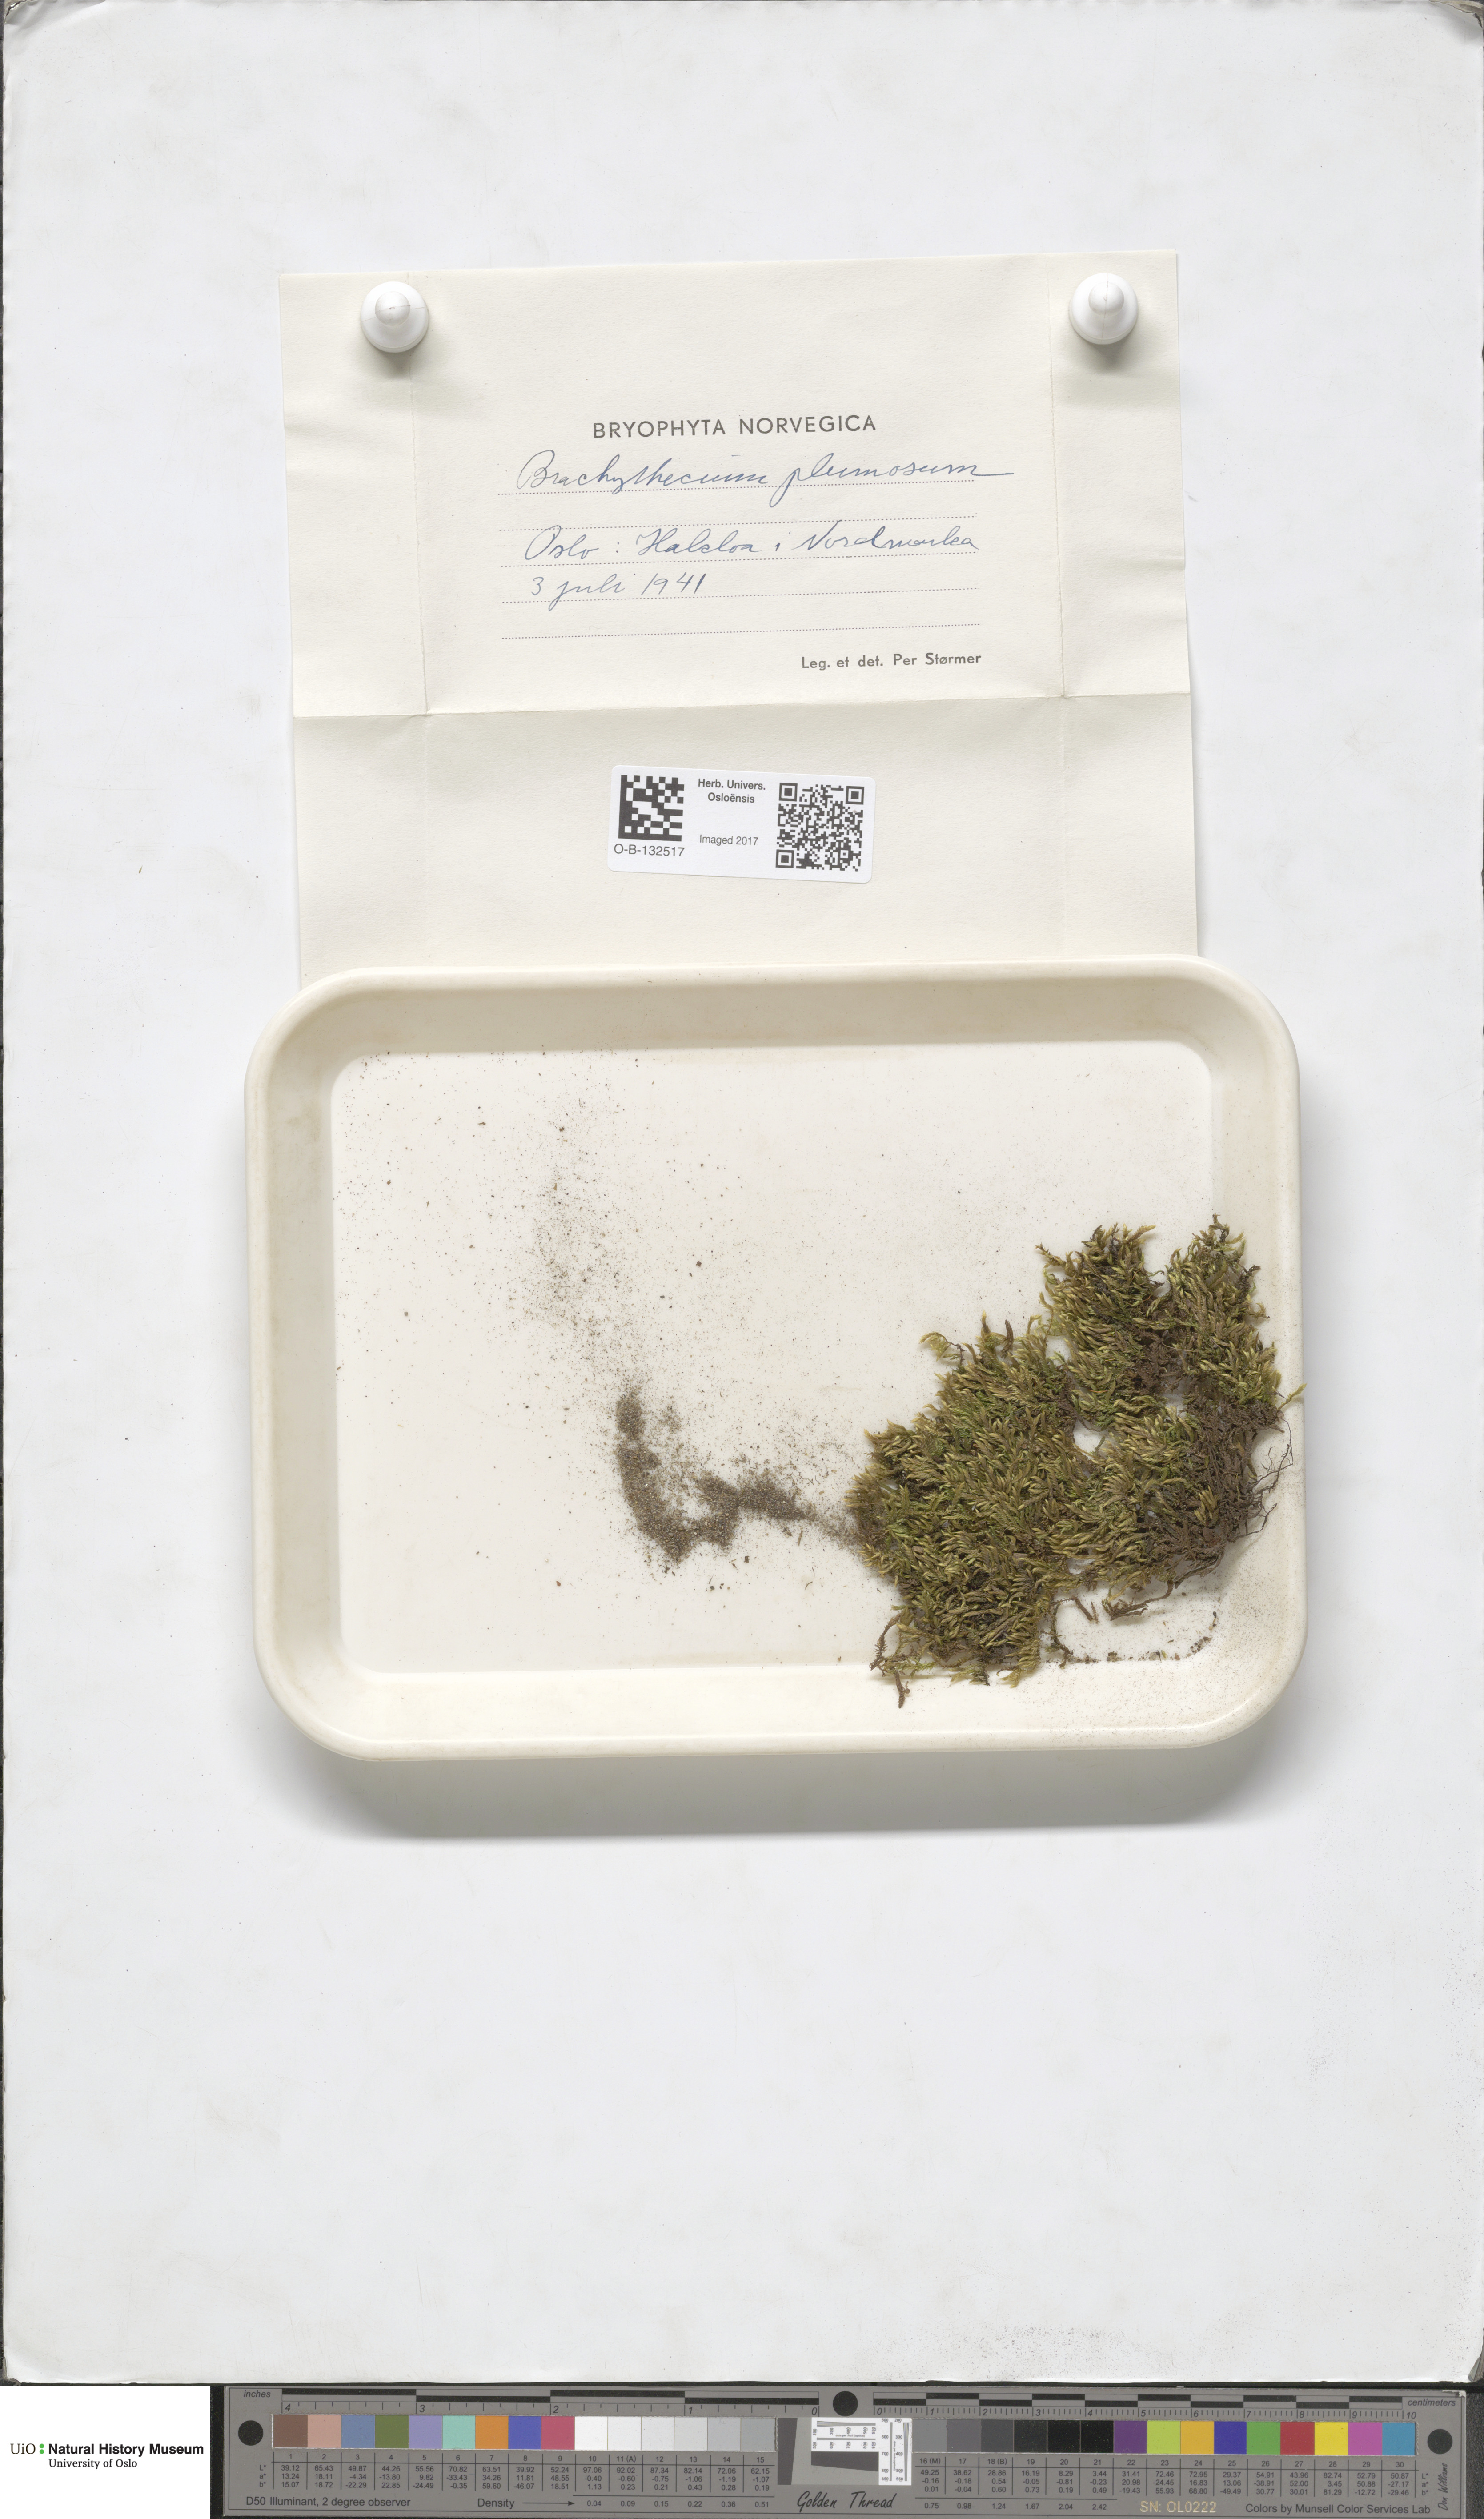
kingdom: Plantae
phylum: Bryophyta
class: Bryopsida
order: Hypnales
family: Brachytheciaceae
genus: Sciuro-hypnum
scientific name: Sciuro-hypnum plumosum
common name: Rusty feather-moss
